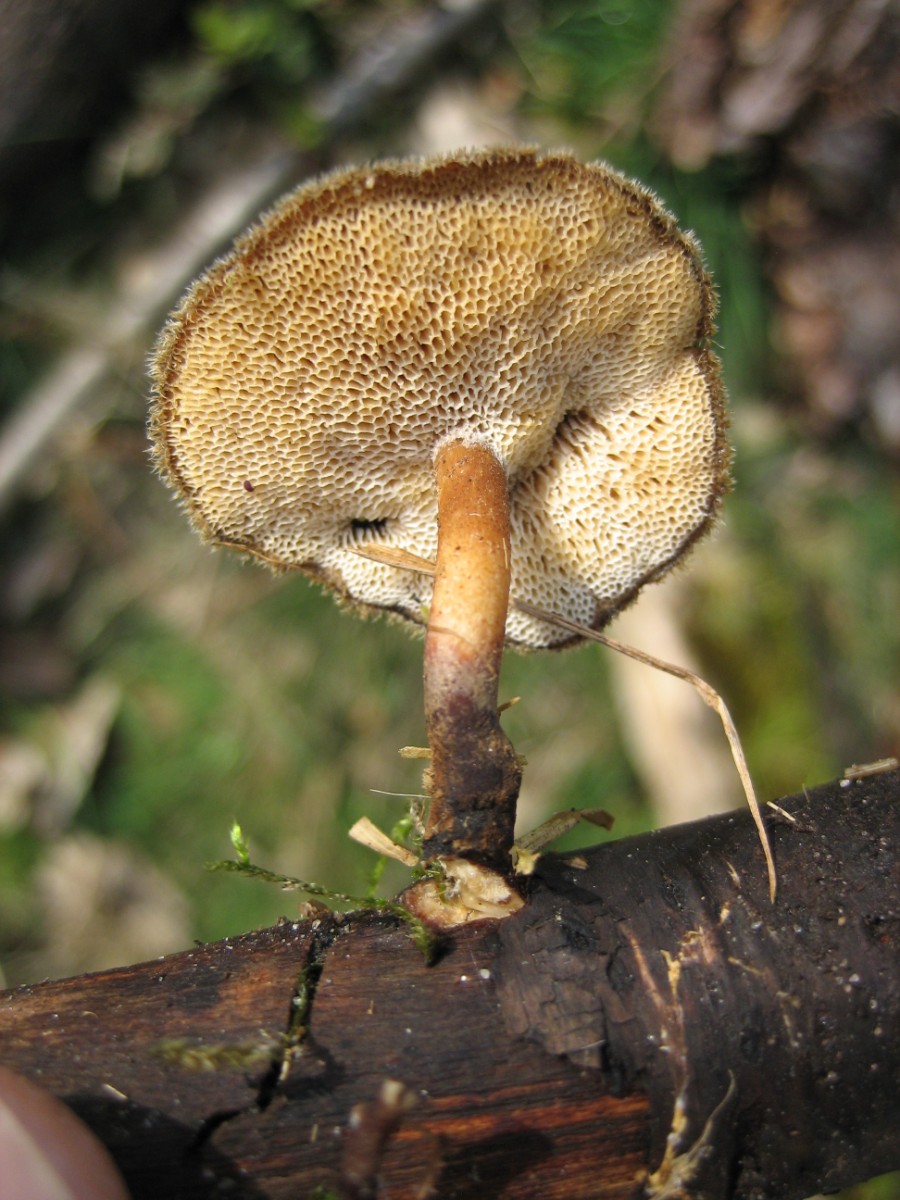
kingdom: Fungi
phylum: Basidiomycota
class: Agaricomycetes
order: Polyporales
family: Polyporaceae
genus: Lentinus
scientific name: Lentinus brumalis
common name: vinter-stilkporesvamp
